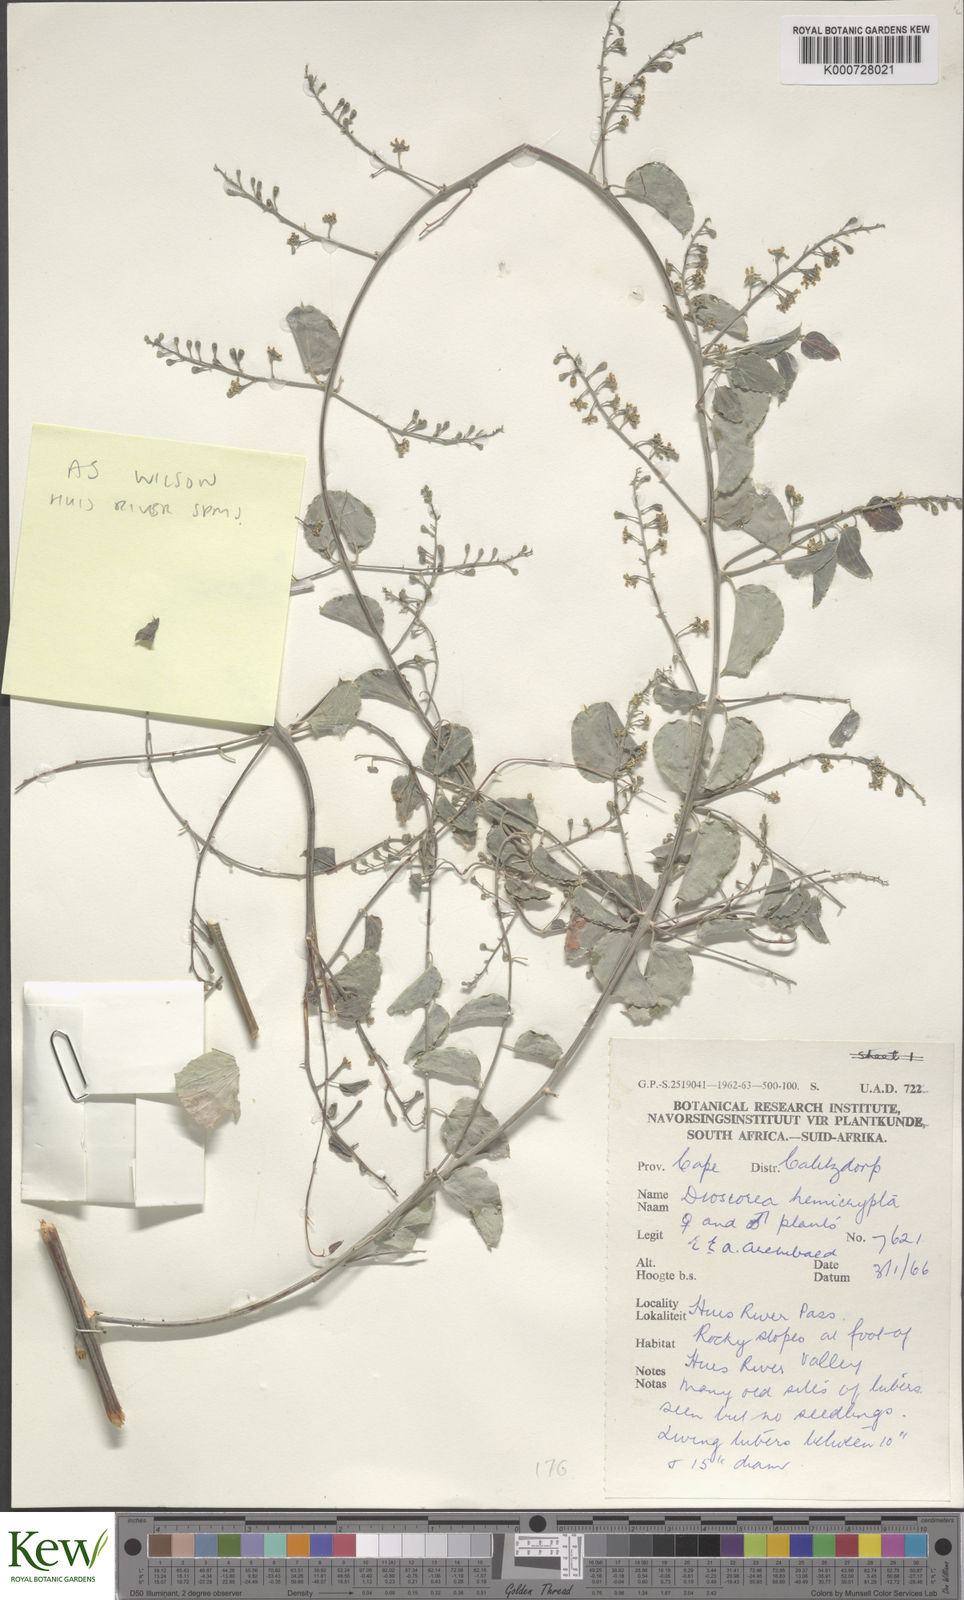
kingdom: Plantae
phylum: Tracheophyta
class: Liliopsida
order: Dioscoreales
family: Dioscoreaceae
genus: Dioscorea
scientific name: Dioscorea hemicrypta
